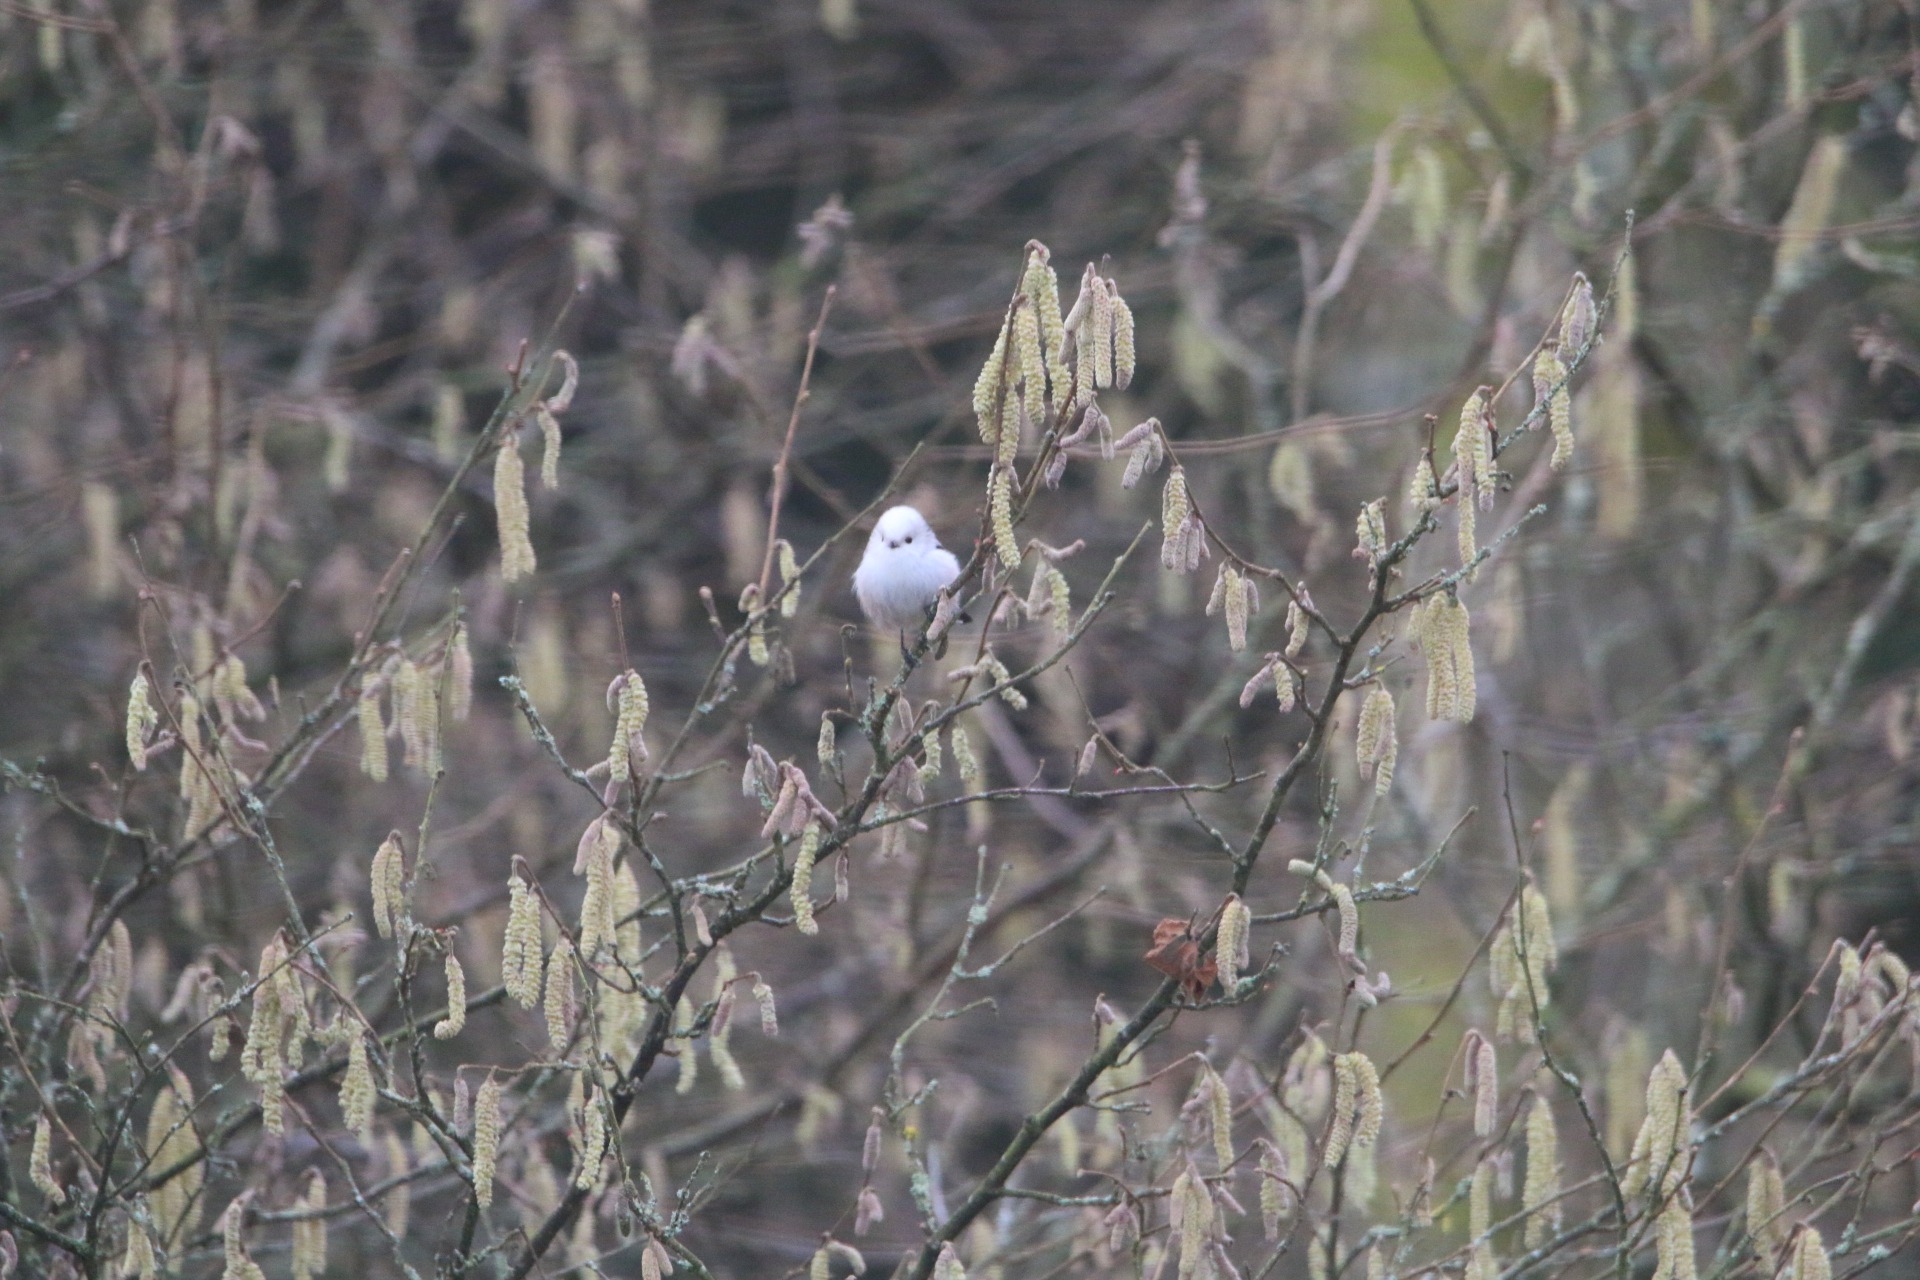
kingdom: Animalia
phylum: Chordata
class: Aves
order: Passeriformes
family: Aegithalidae
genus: Aegithalos
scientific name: Aegithalos caudatus
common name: Halemejse
